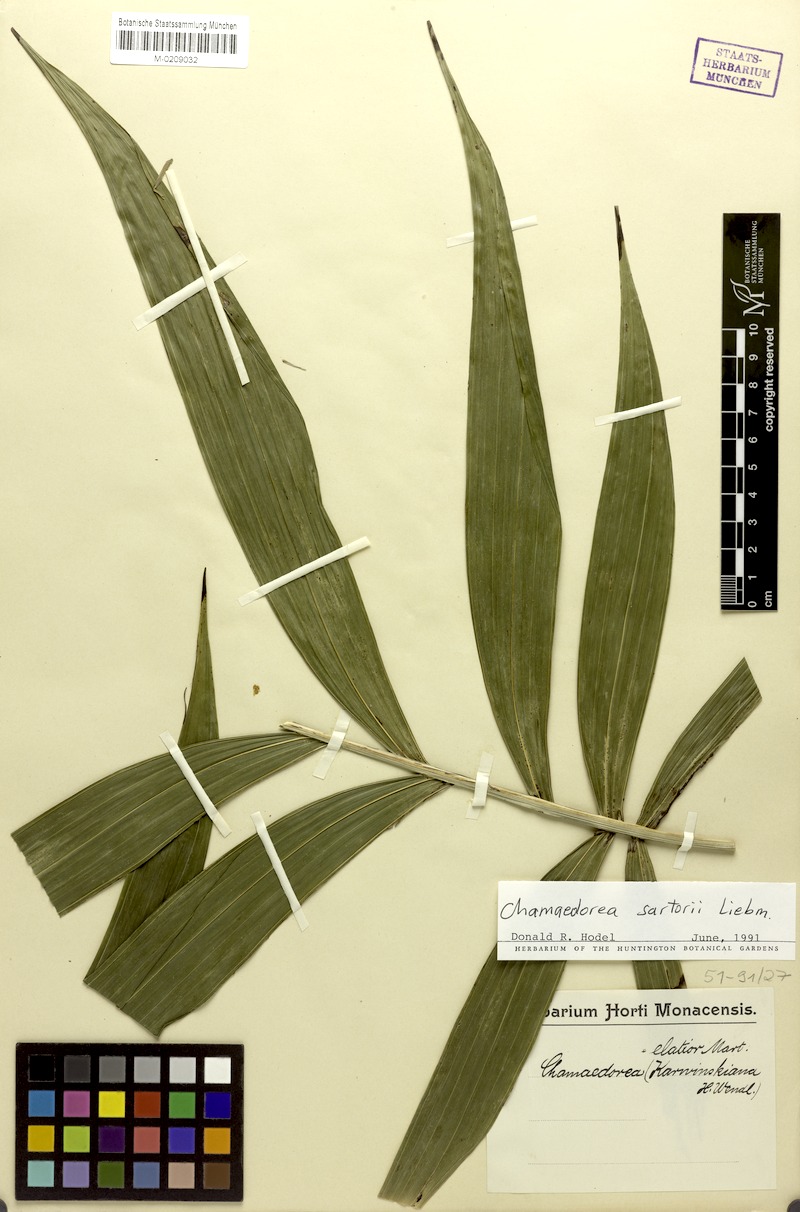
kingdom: Plantae
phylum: Tracheophyta
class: Liliopsida
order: Arecales
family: Arecaceae
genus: Chamaedorea
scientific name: Chamaedorea sartorii
